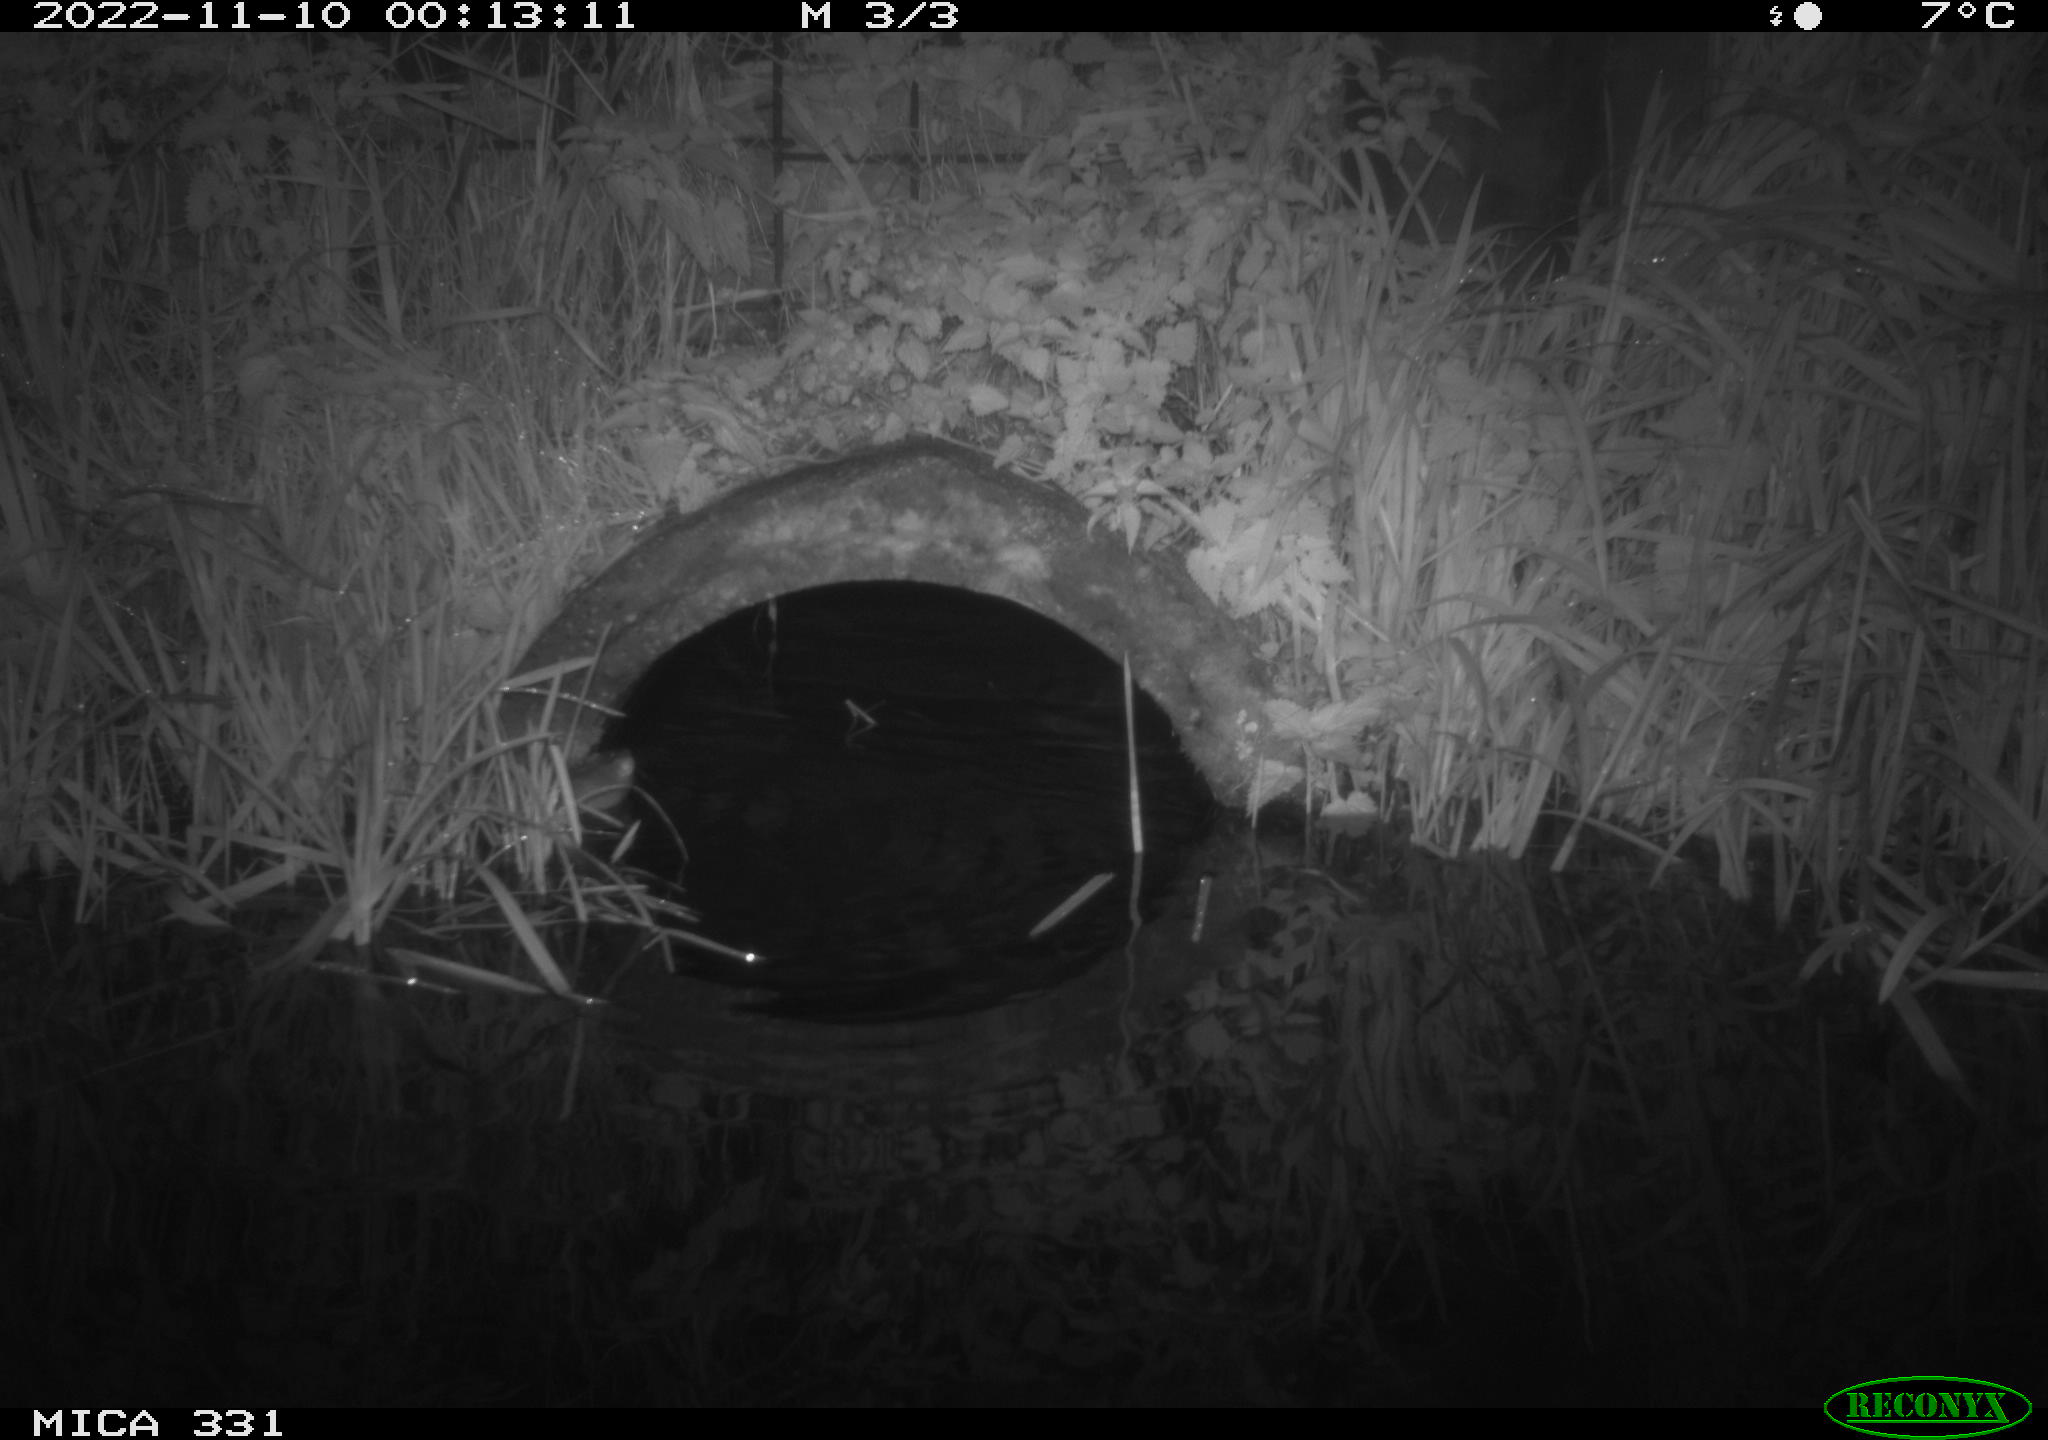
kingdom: Animalia
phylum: Chordata
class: Mammalia
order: Rodentia
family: Muridae
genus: Rattus
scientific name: Rattus norvegicus
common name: Brown rat
